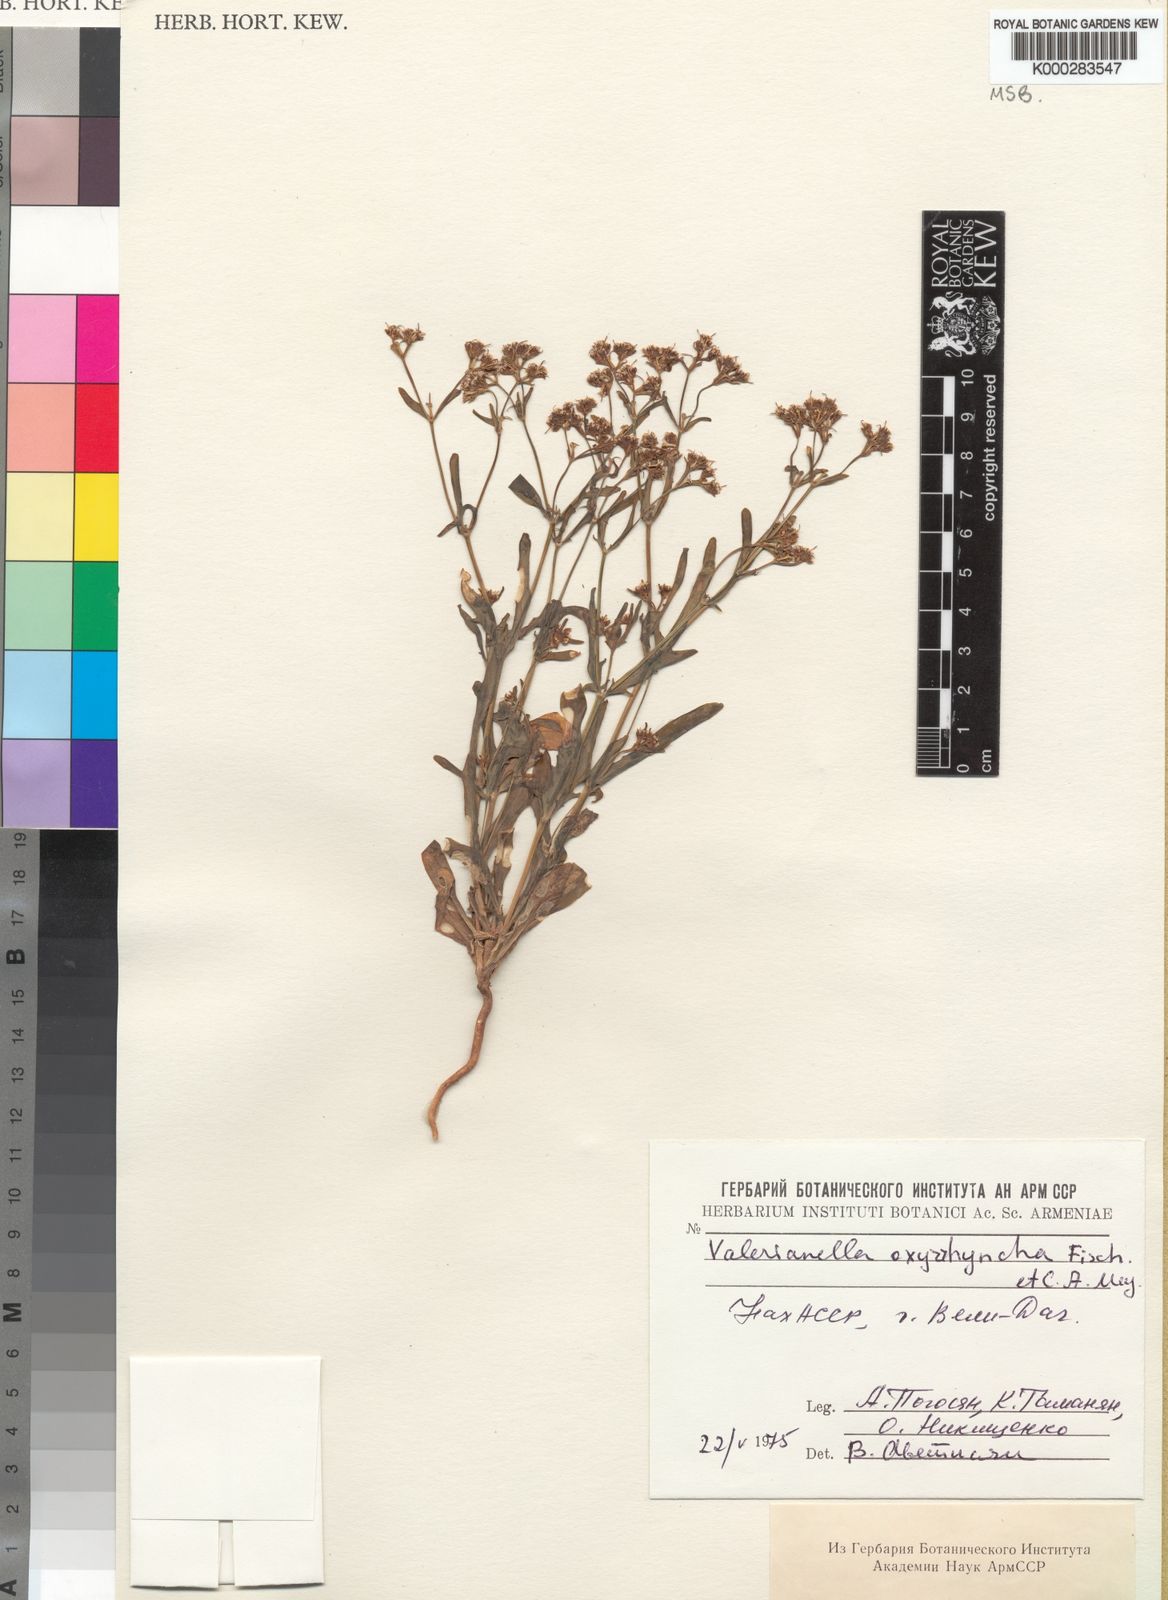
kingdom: Plantae
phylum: Tracheophyta
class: Magnoliopsida
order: Dipsacales
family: Caprifoliaceae
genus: Valerianella
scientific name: Valerianella oxyrhyncha
